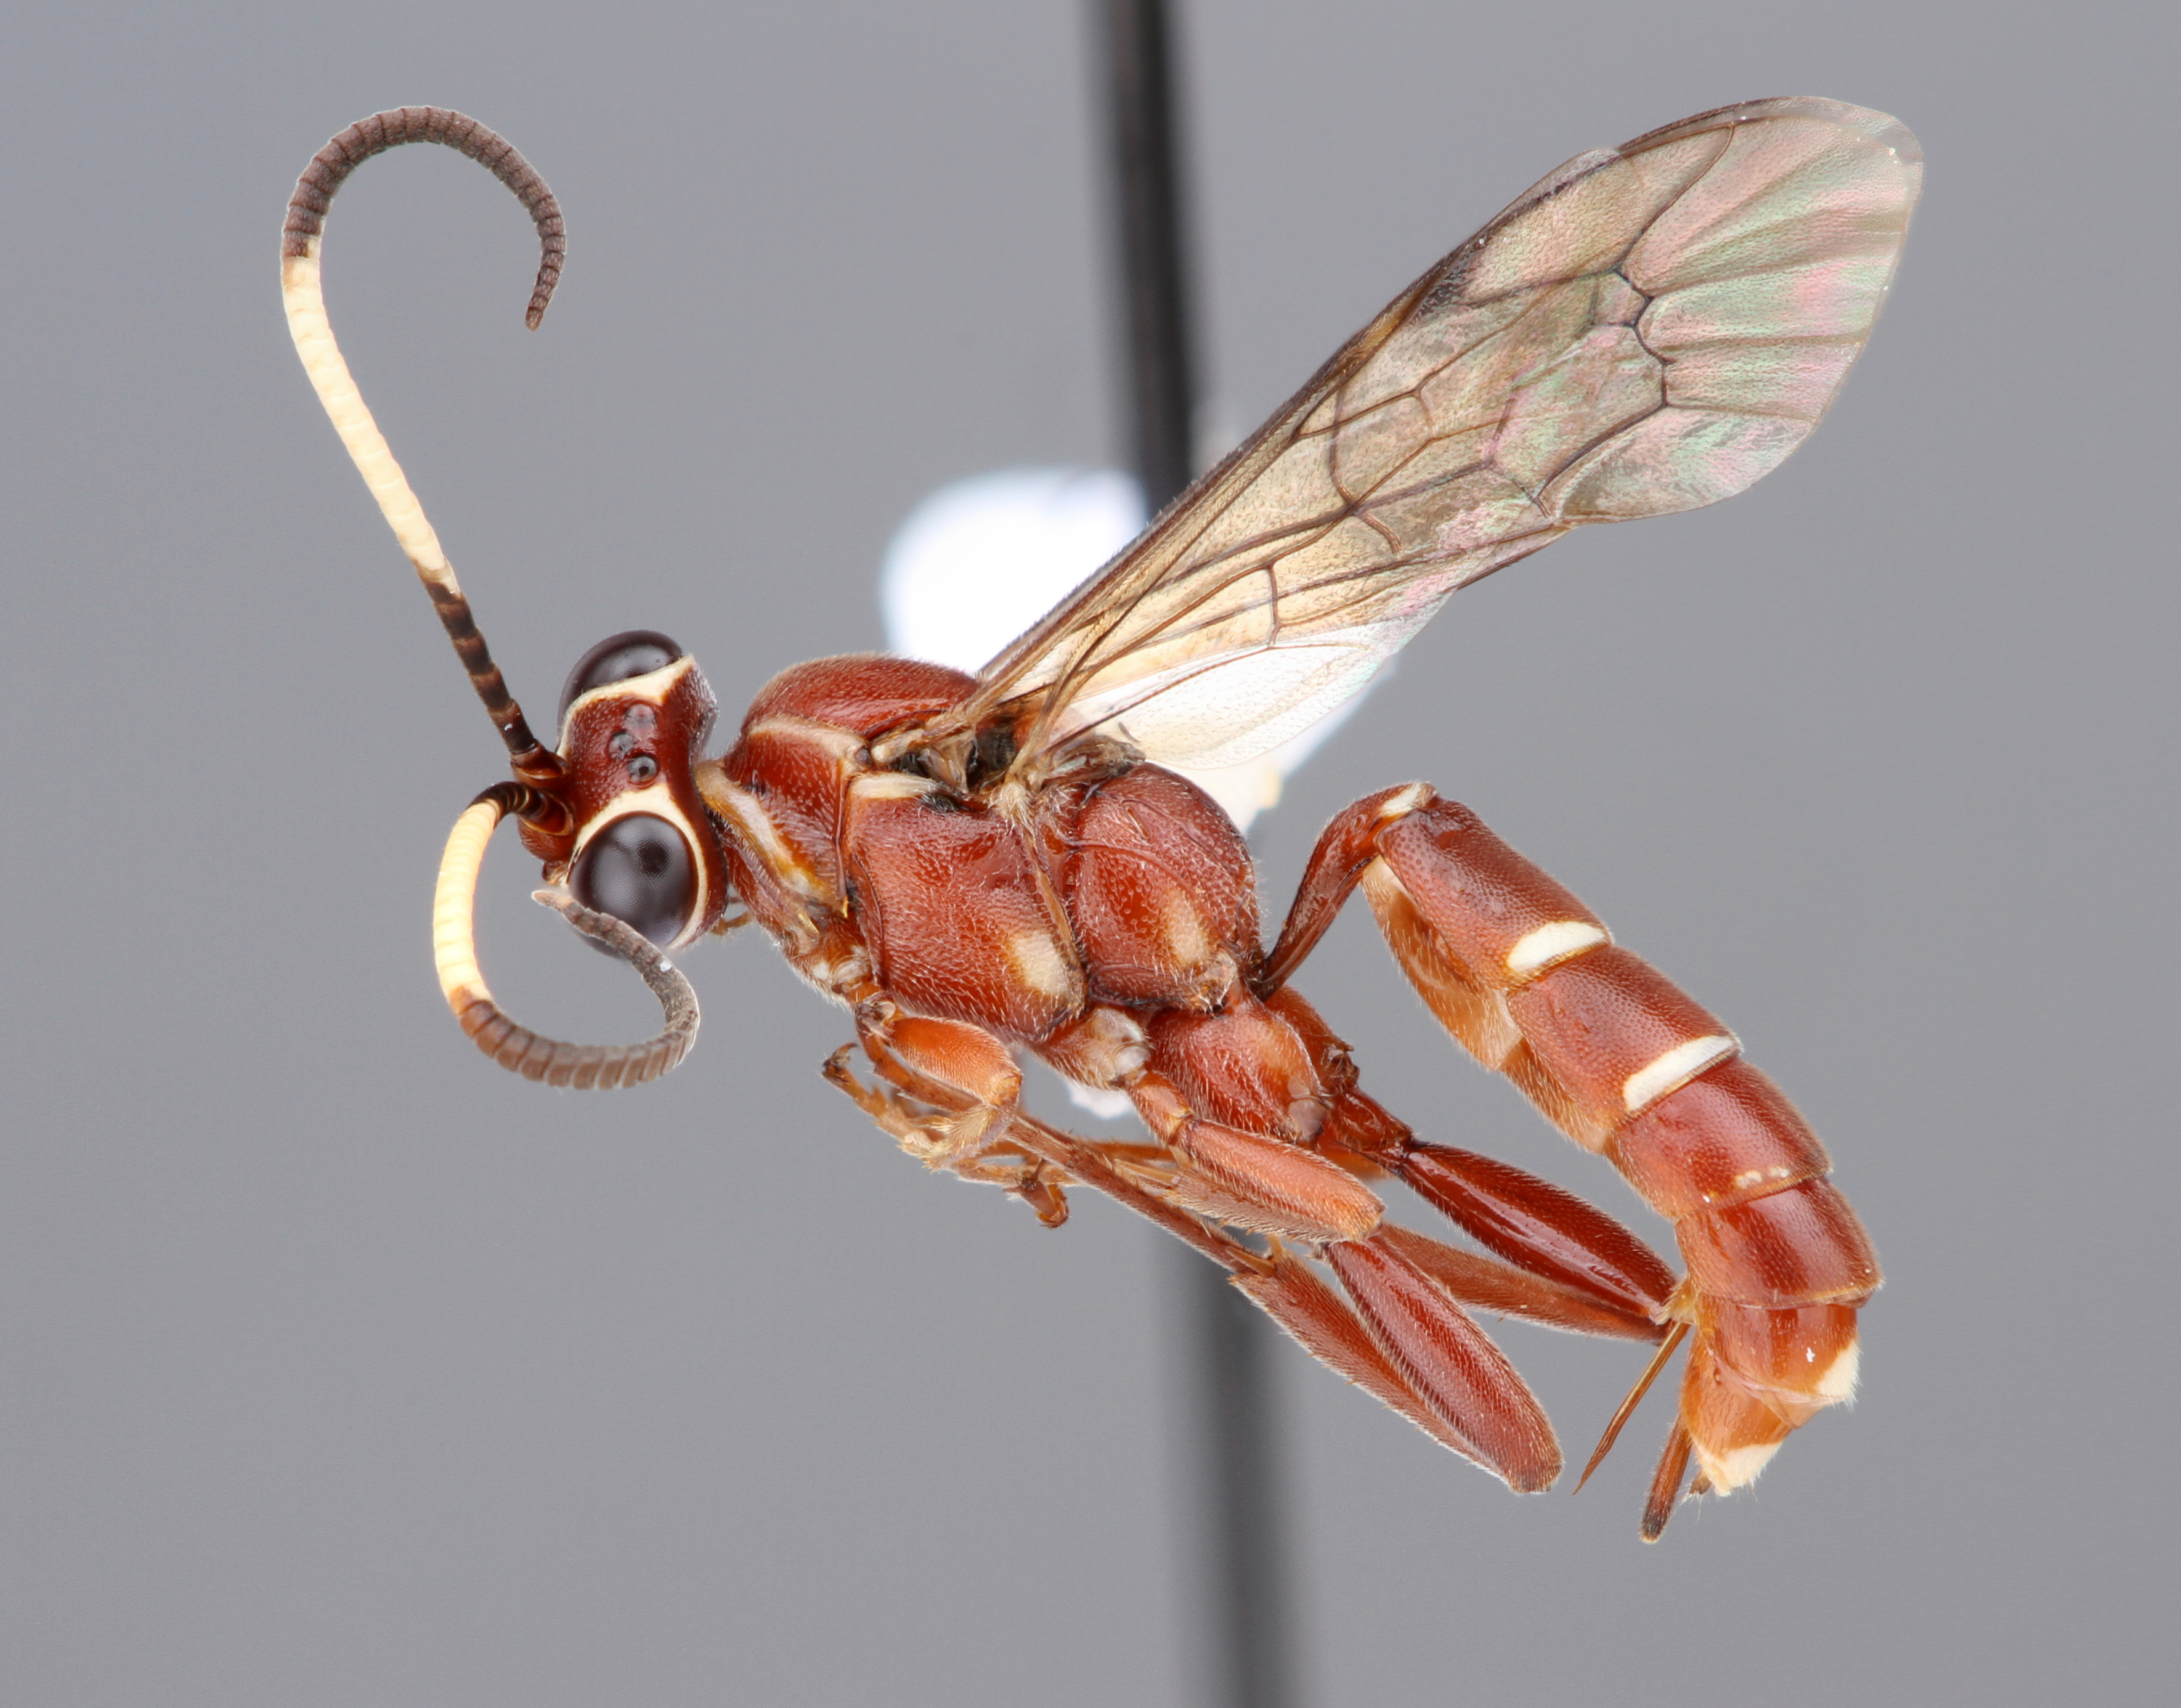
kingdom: Animalia
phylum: Arthropoda
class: Insecta
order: Hymenoptera
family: Ichneumonidae
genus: Melanichneumon
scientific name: Melanichneumon
